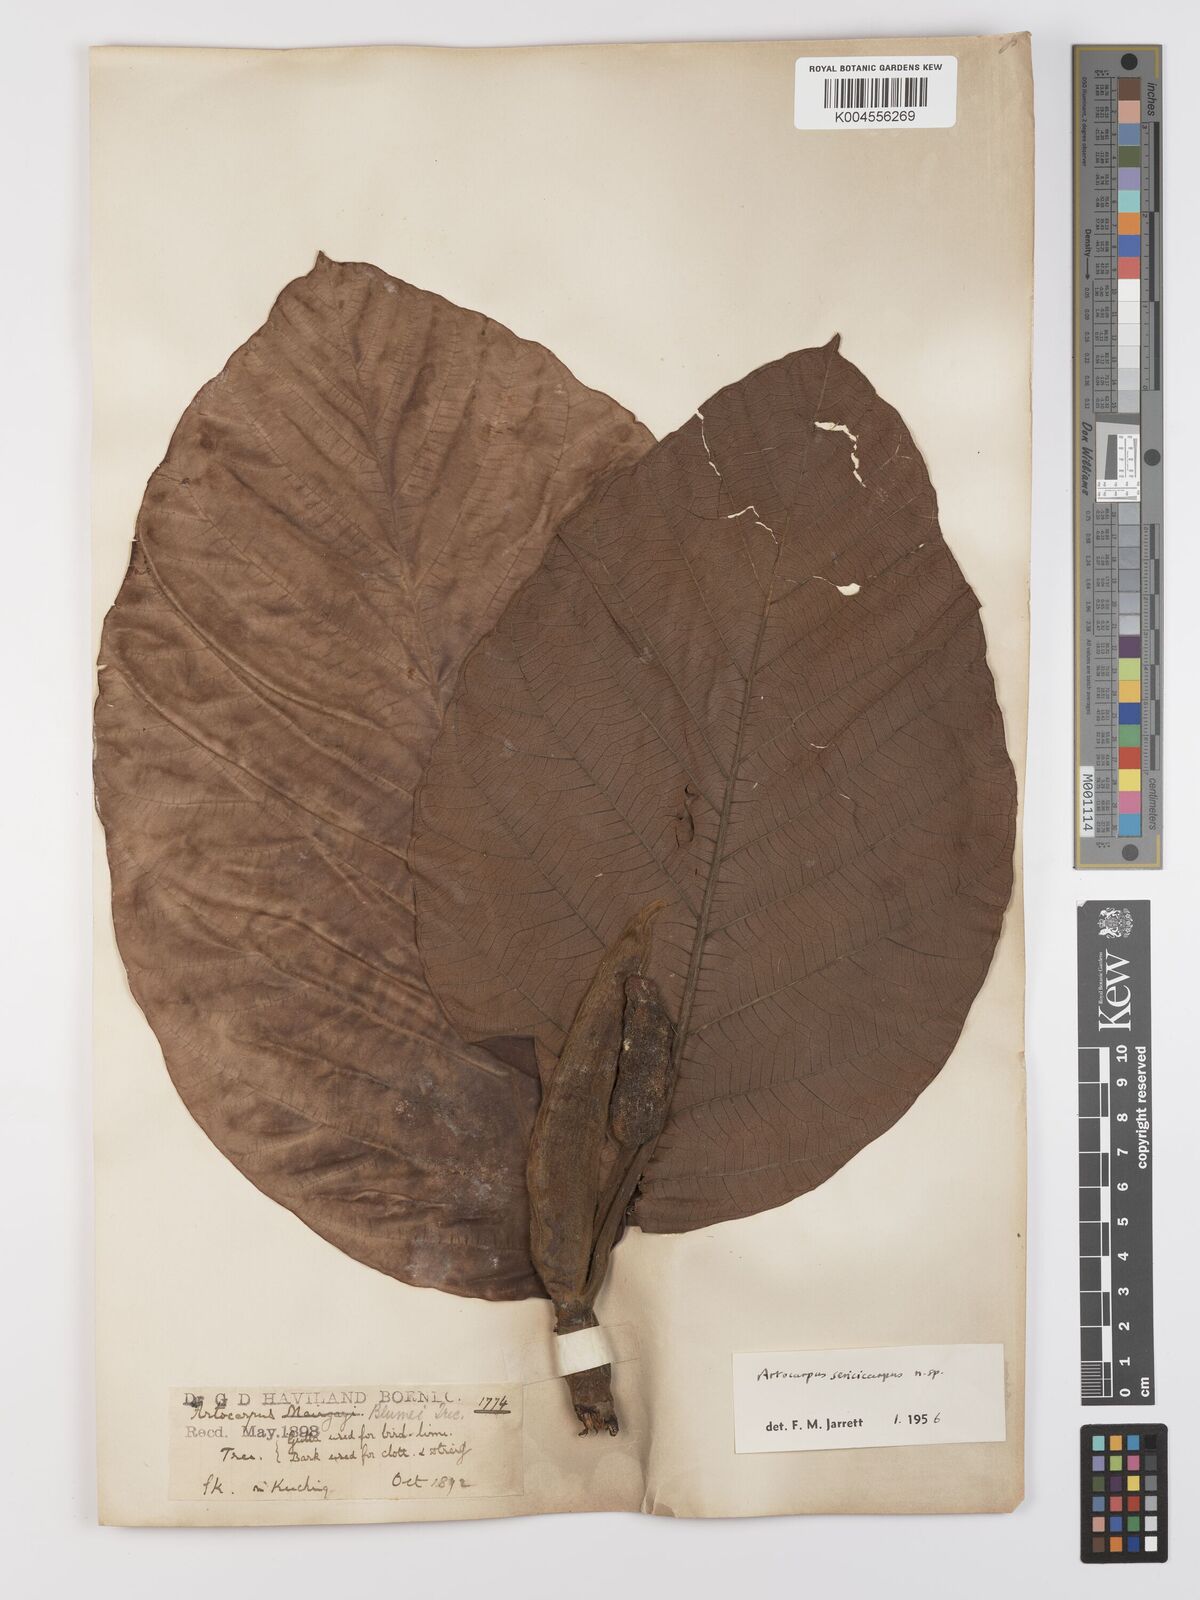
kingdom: Plantae
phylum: Tracheophyta
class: Magnoliopsida
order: Rosales
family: Moraceae
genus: Artocarpus
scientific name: Artocarpus sericicarpus
